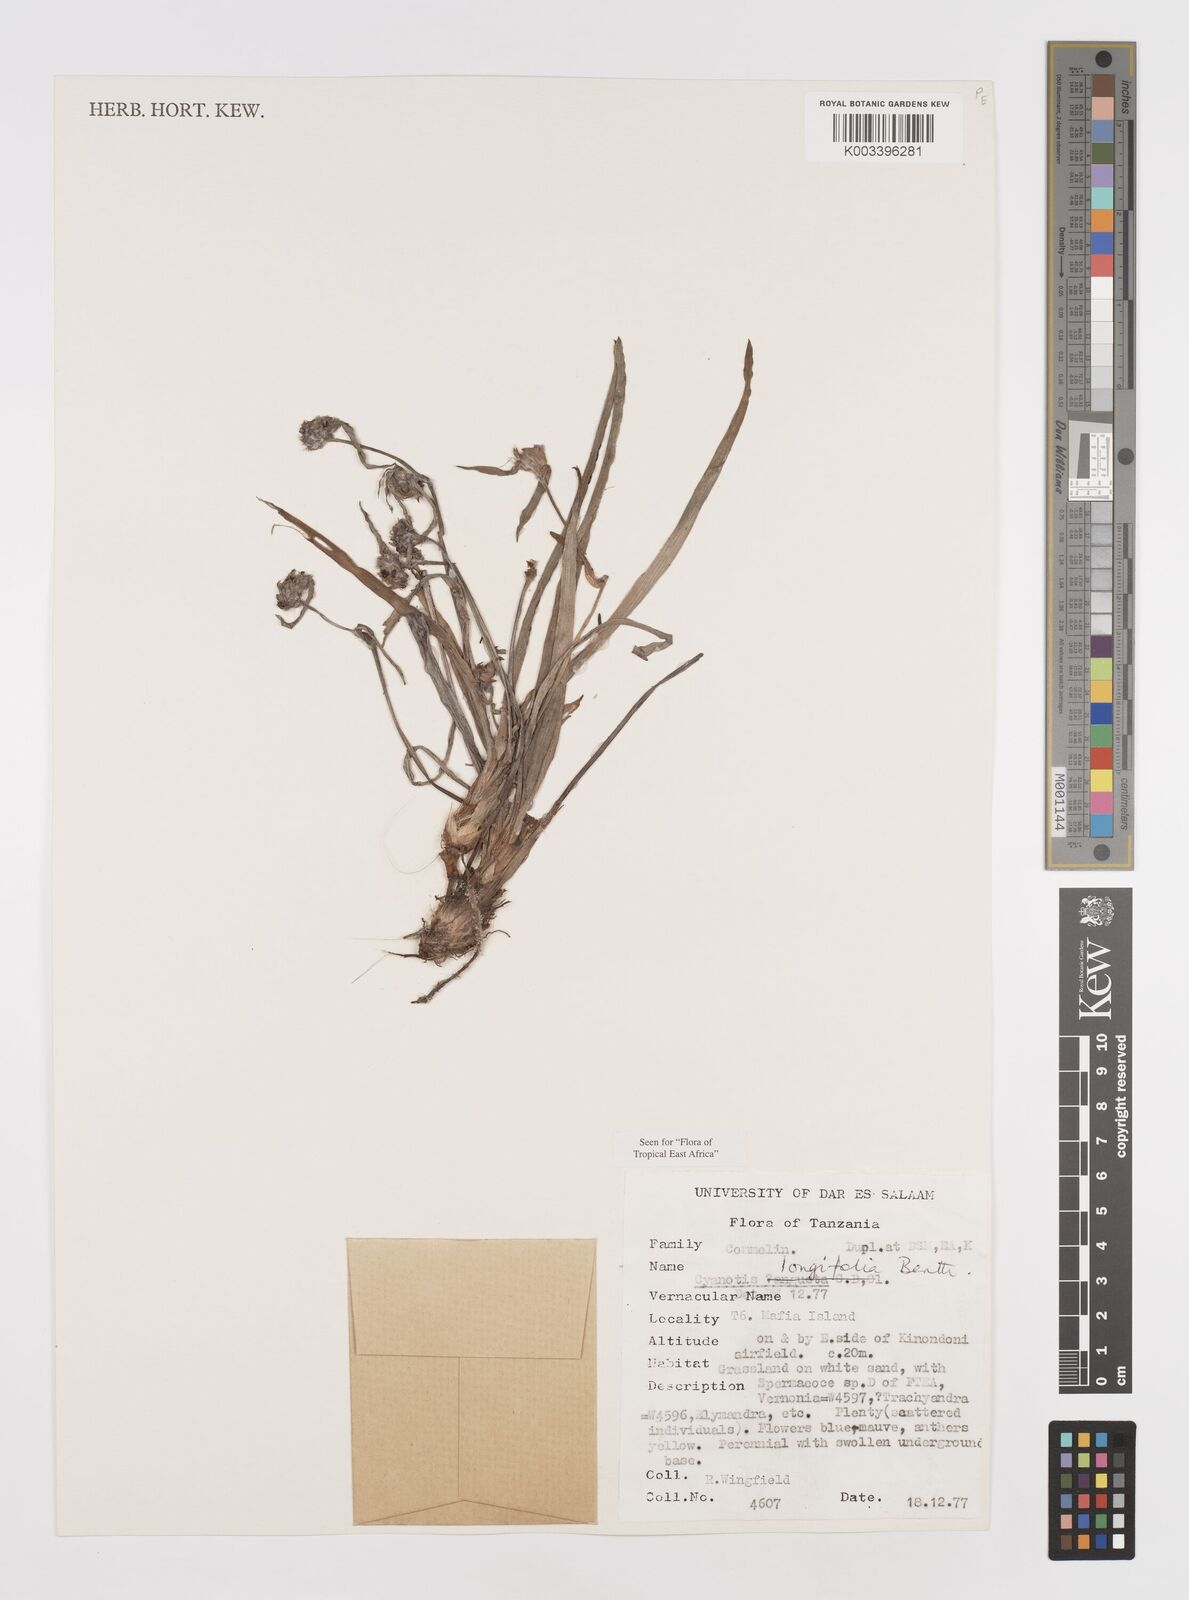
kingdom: Plantae
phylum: Tracheophyta
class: Liliopsida
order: Commelinales
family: Commelinaceae
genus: Cyanotis
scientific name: Cyanotis longifolia
